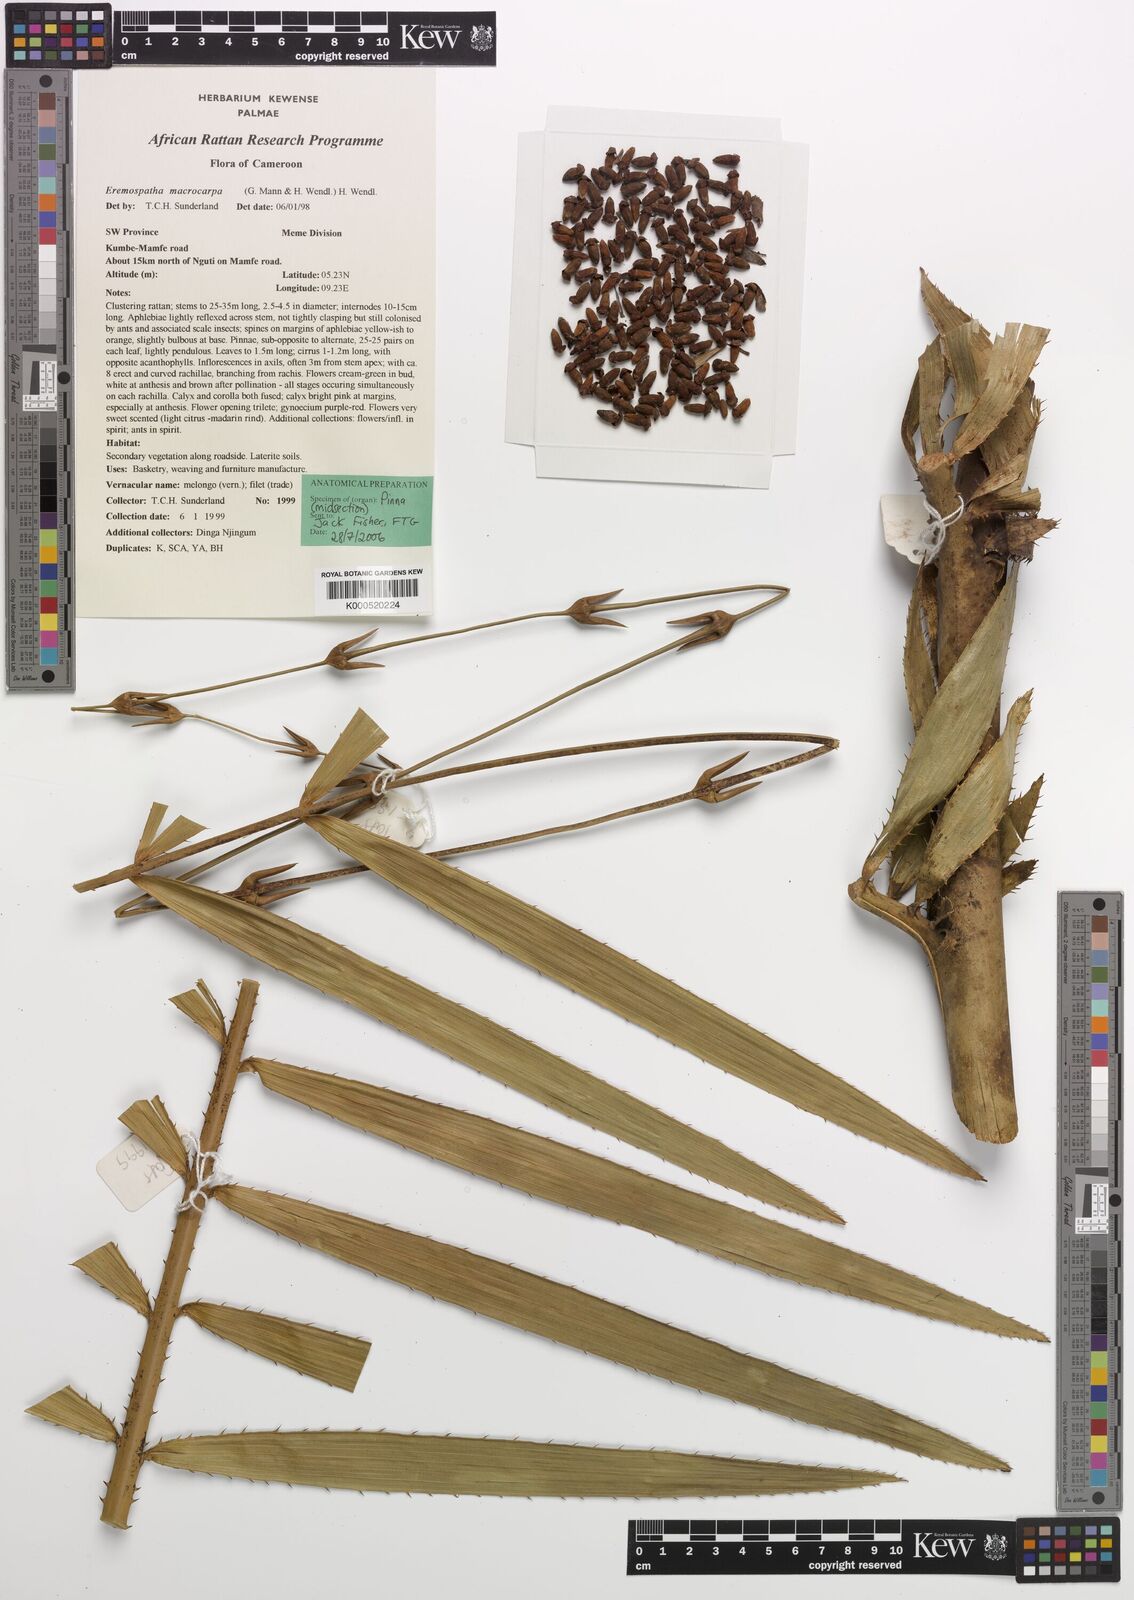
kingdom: Plantae
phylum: Tracheophyta
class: Liliopsida
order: Arecales
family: Arecaceae
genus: Eremospatha
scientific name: Eremospatha
